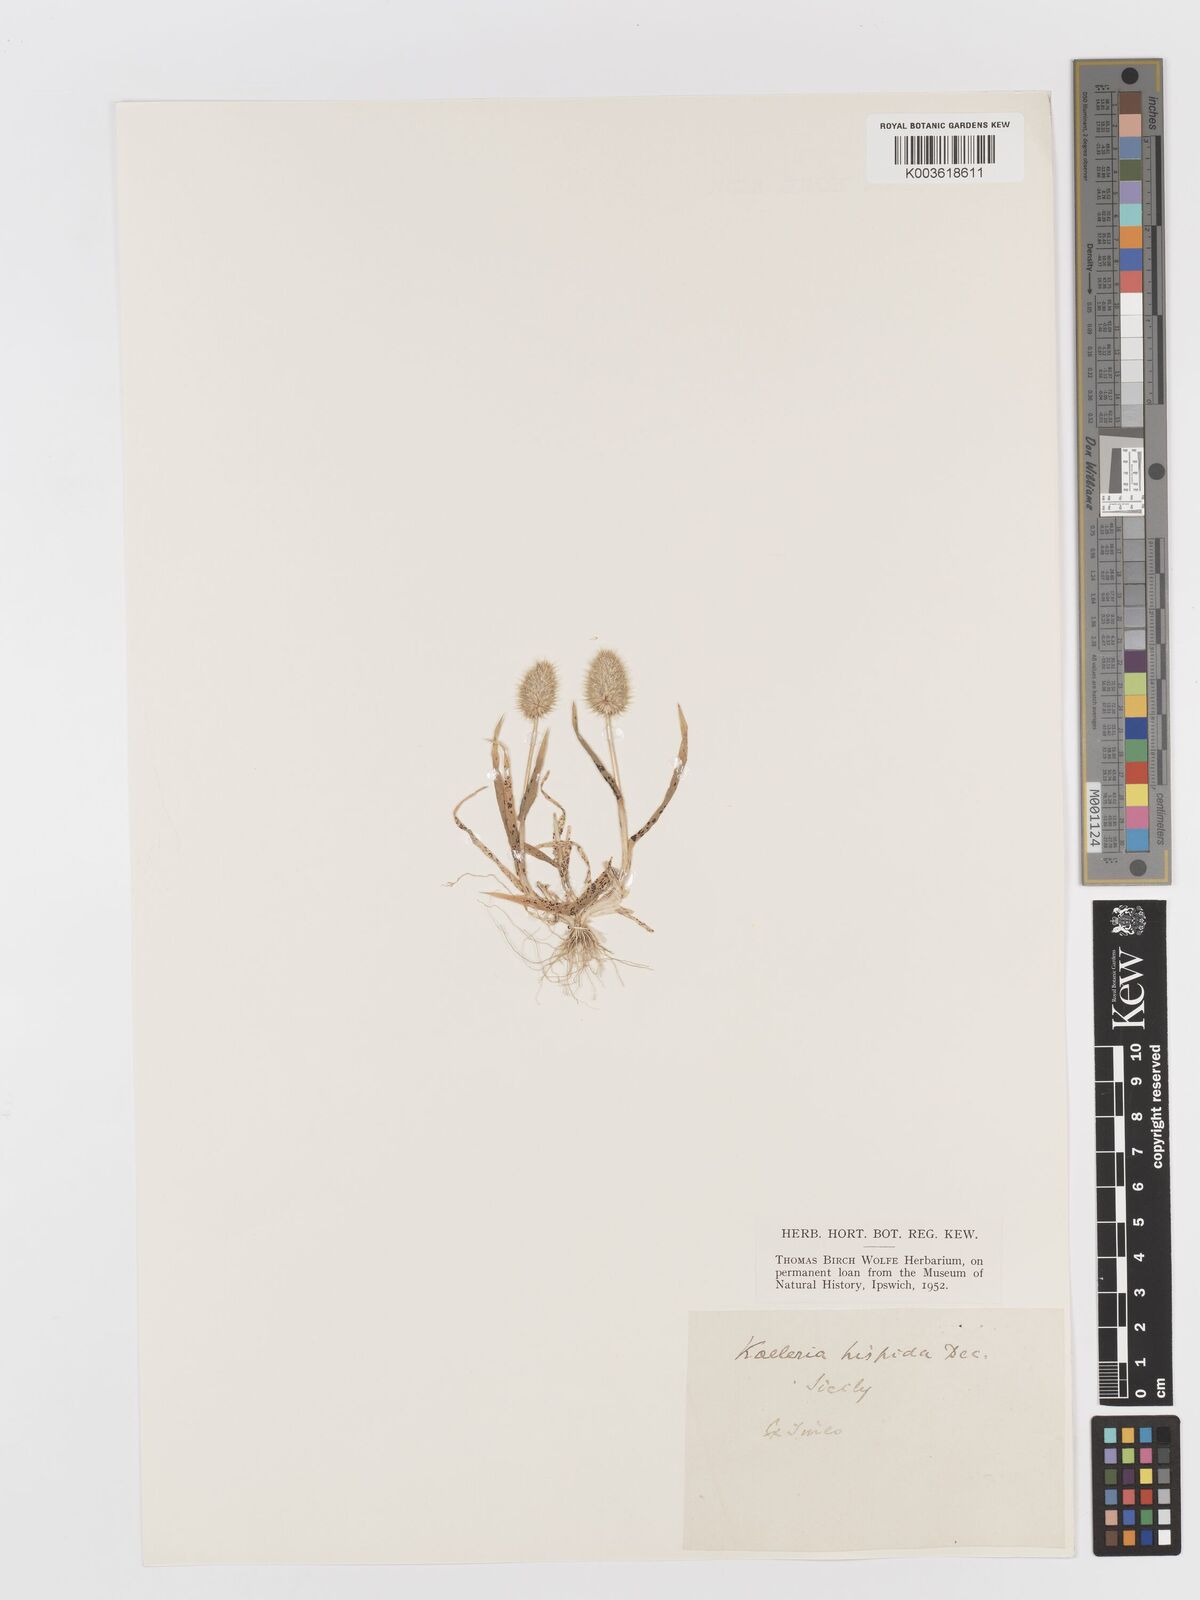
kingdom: Plantae
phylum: Tracheophyta
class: Liliopsida
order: Poales
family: Poaceae
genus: Rostraria
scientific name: Rostraria hispida
